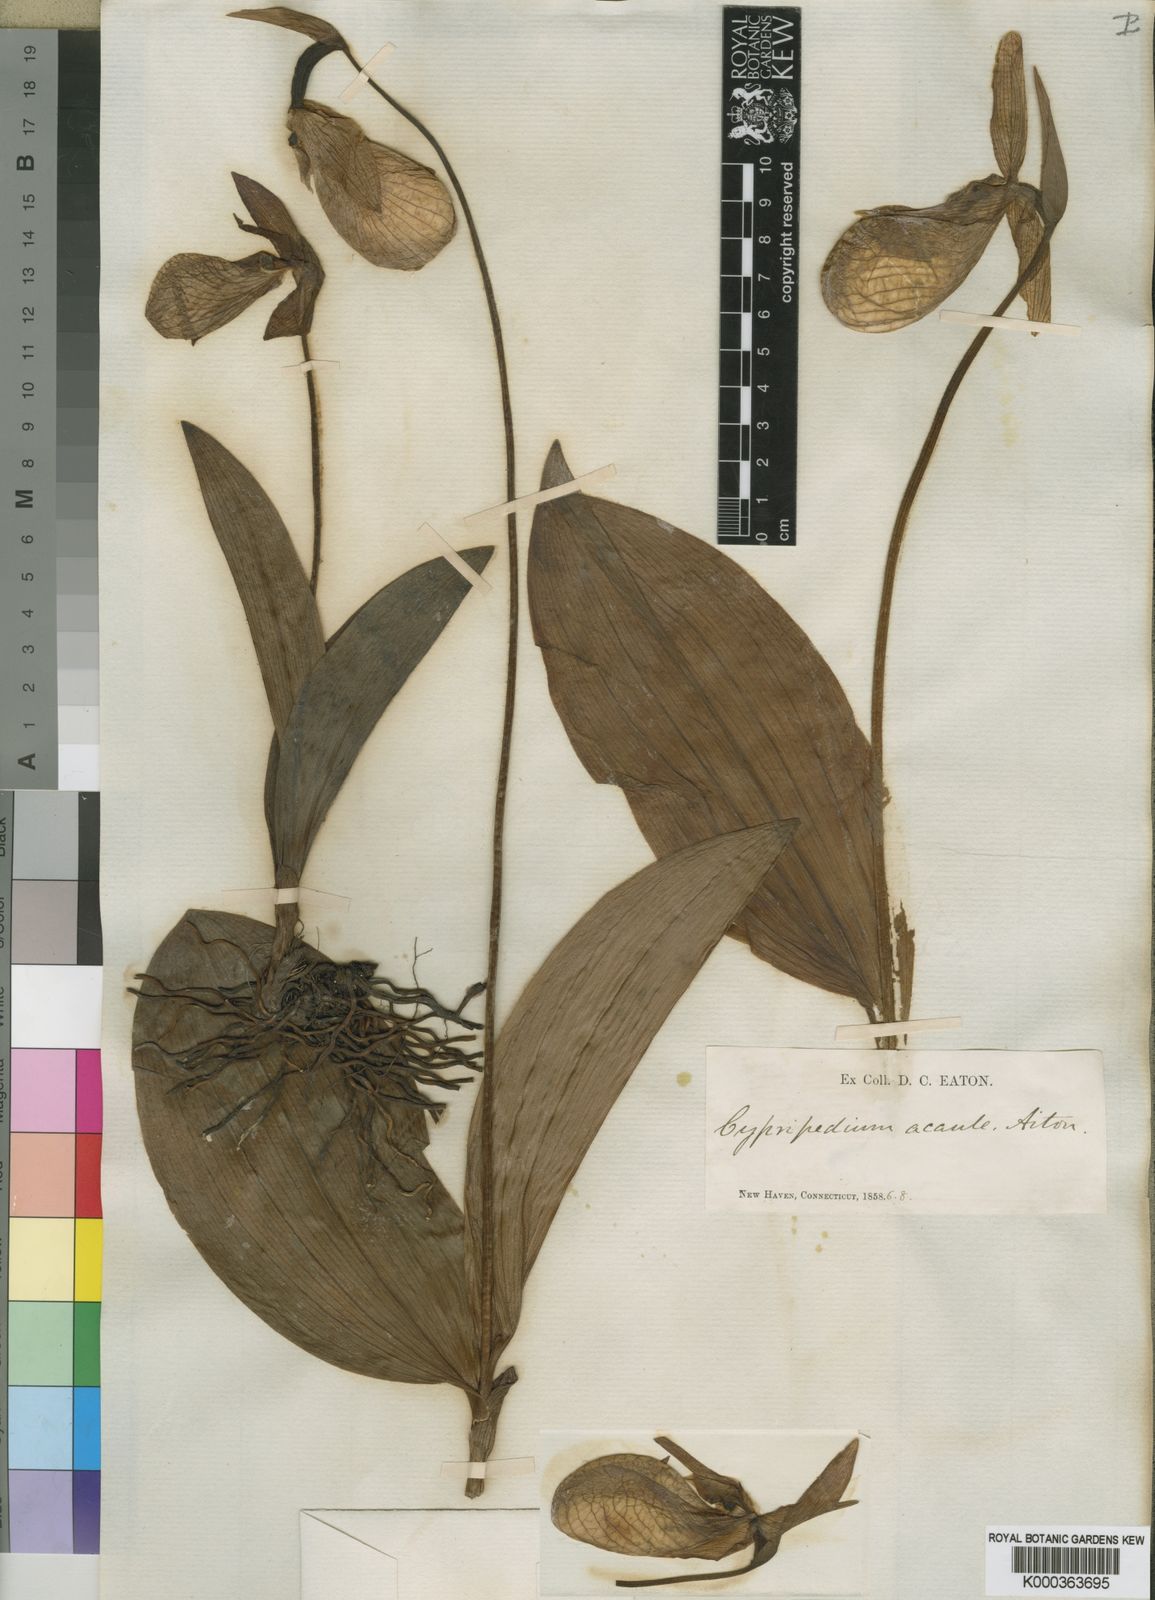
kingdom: Plantae
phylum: Tracheophyta
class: Liliopsida
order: Asparagales
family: Orchidaceae
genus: Cypripedium
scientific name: Cypripedium acaule
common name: Pink lady's-slipper
